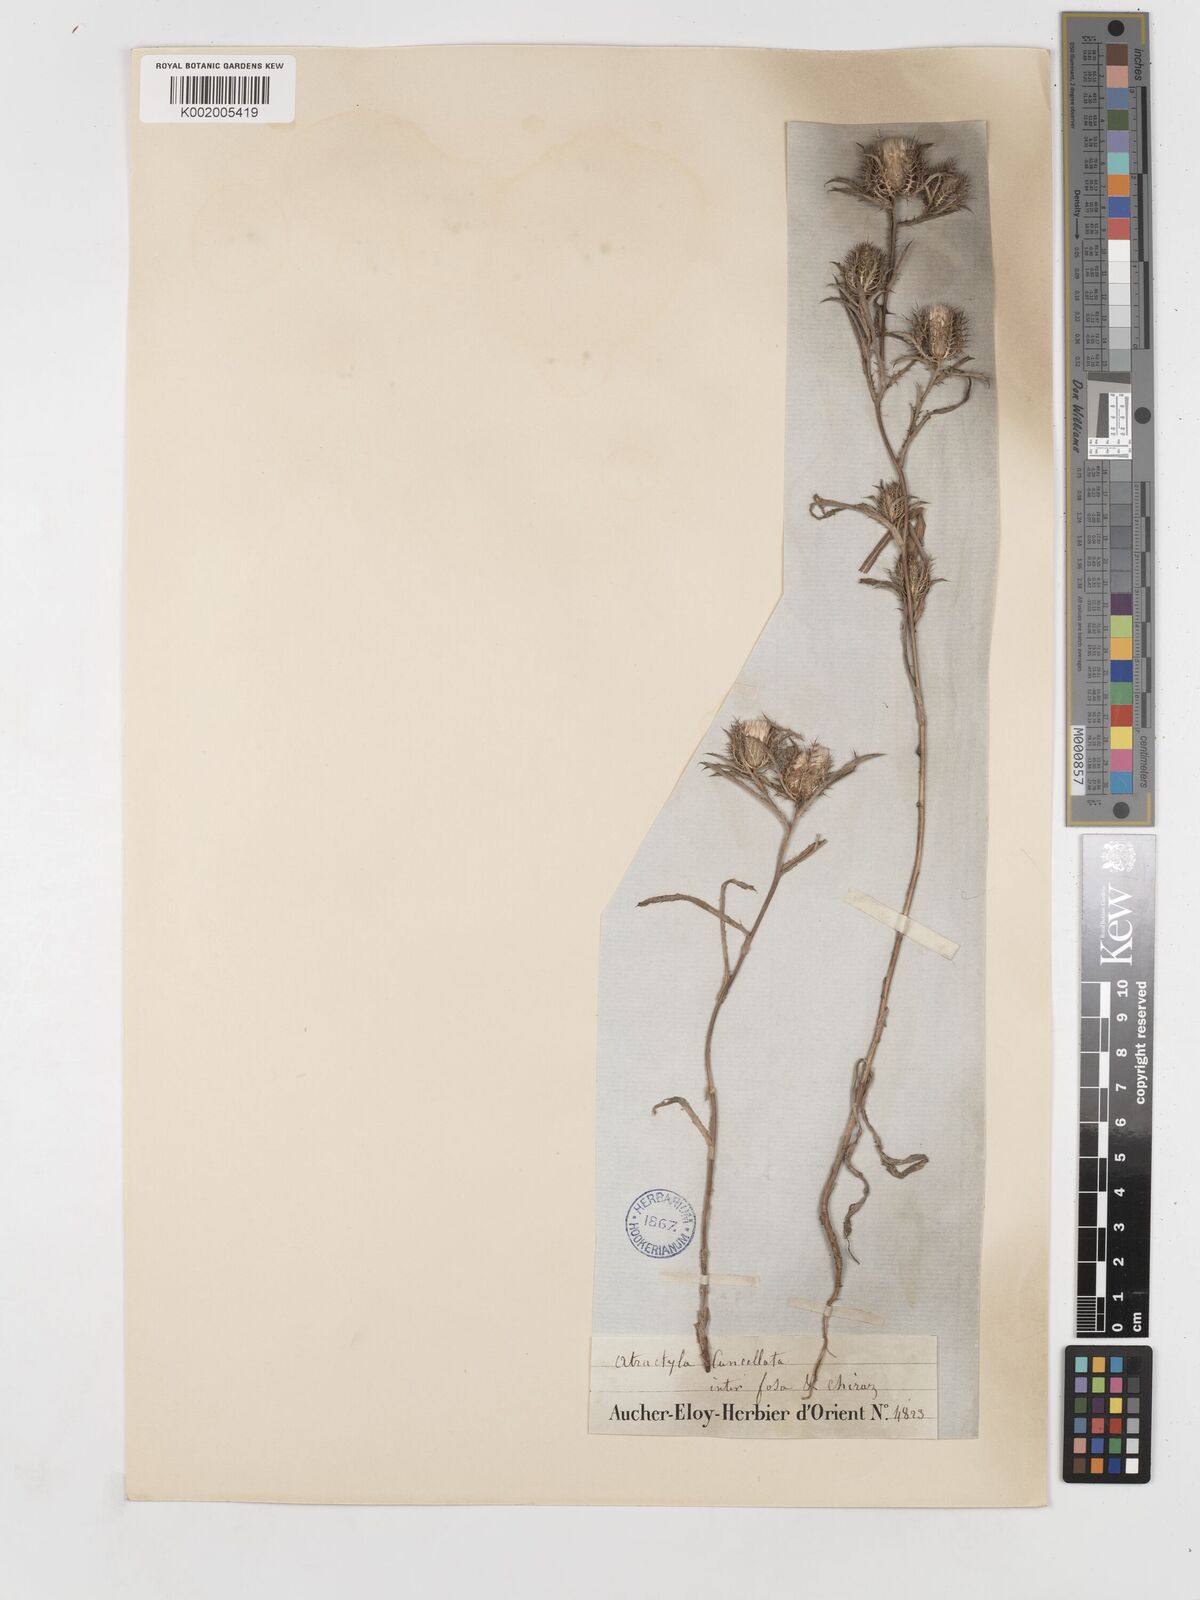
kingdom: Plantae
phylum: Tracheophyta
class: Magnoliopsida
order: Asterales
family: Asteraceae
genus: Atractylis
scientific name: Atractylis cancellata
